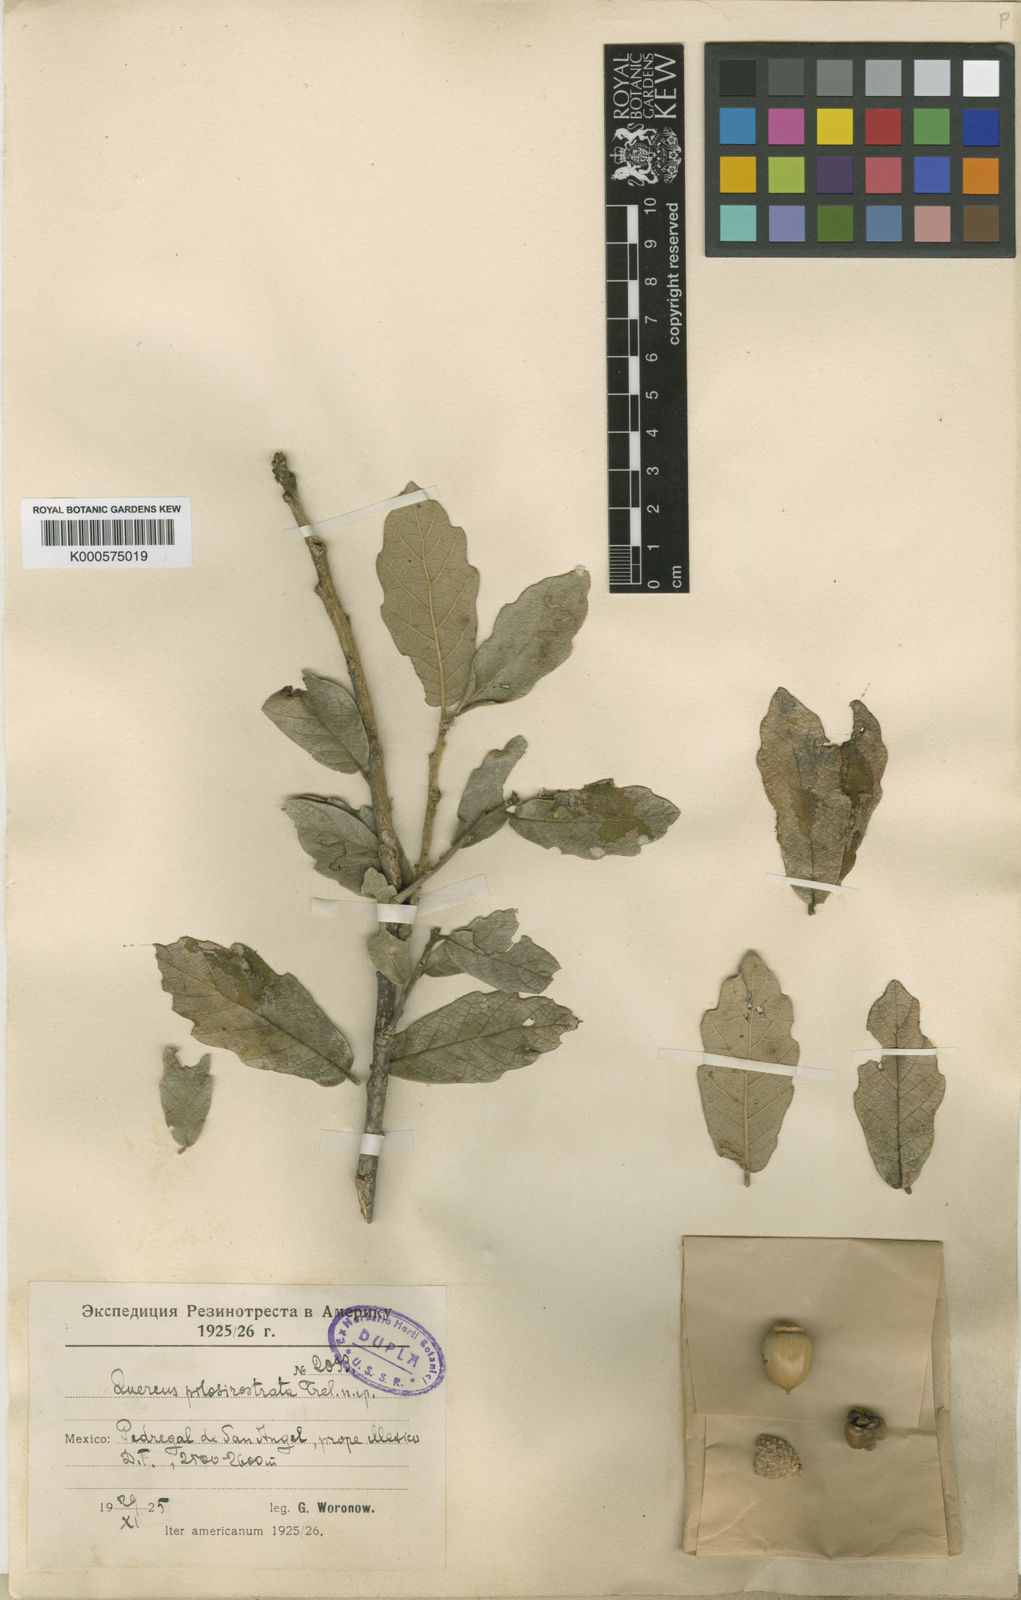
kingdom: Plantae
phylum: Tracheophyta
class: Magnoliopsida
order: Fagales
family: Fagaceae
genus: Quercus
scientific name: Quercus
